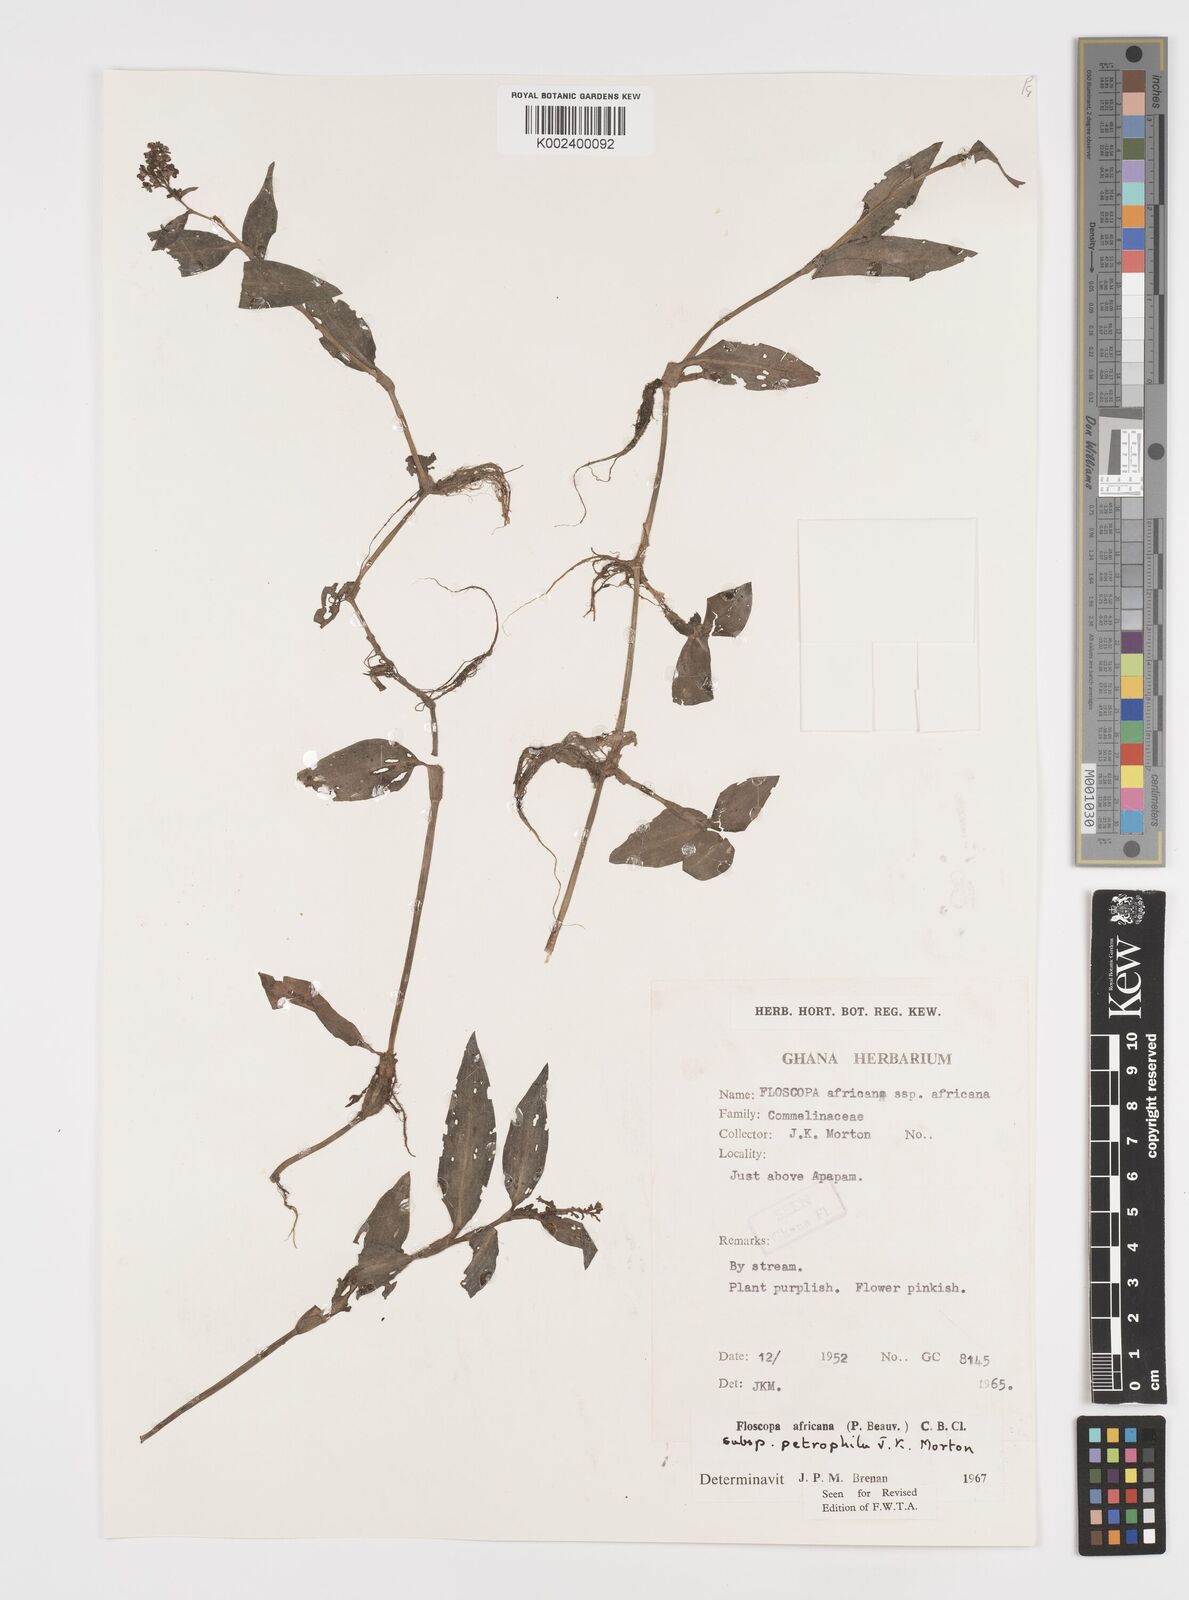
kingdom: Plantae
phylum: Tracheophyta
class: Liliopsida
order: Commelinales
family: Commelinaceae
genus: Floscopa
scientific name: Floscopa africana
